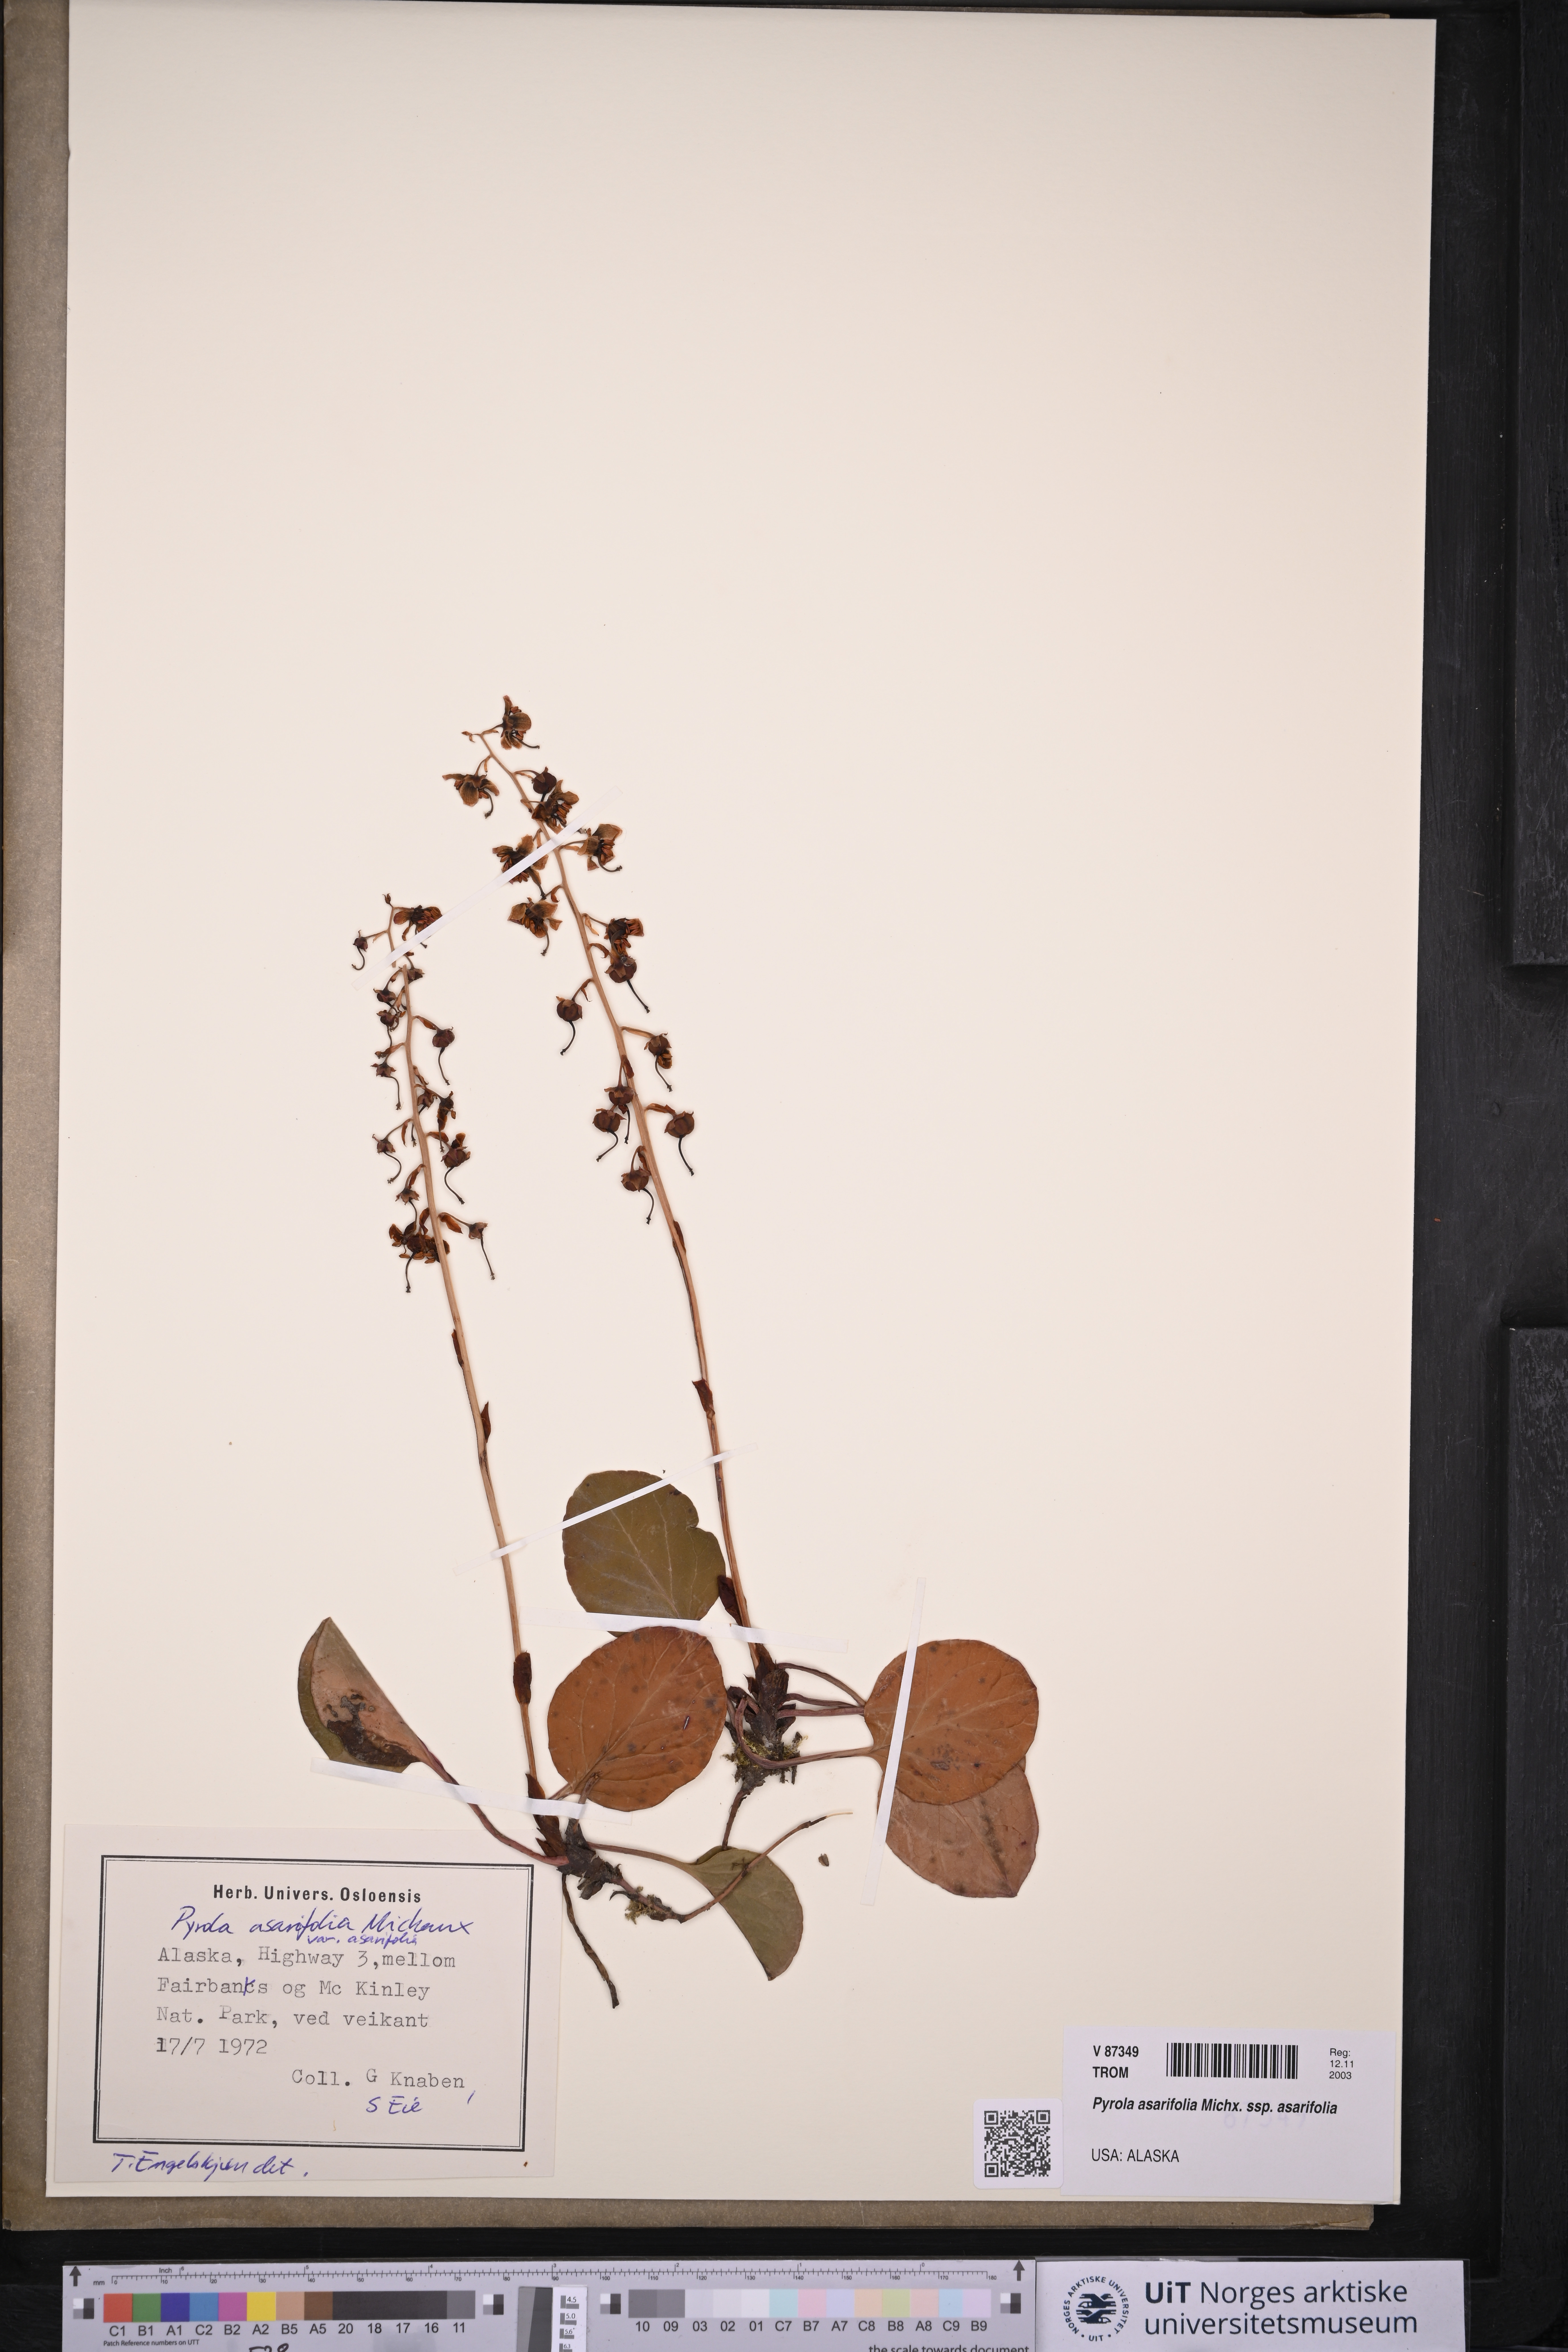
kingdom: Plantae
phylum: Tracheophyta
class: Magnoliopsida
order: Ericales
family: Ericaceae
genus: Pyrola
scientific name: Pyrola asarifolia
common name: Bog wintergreen
